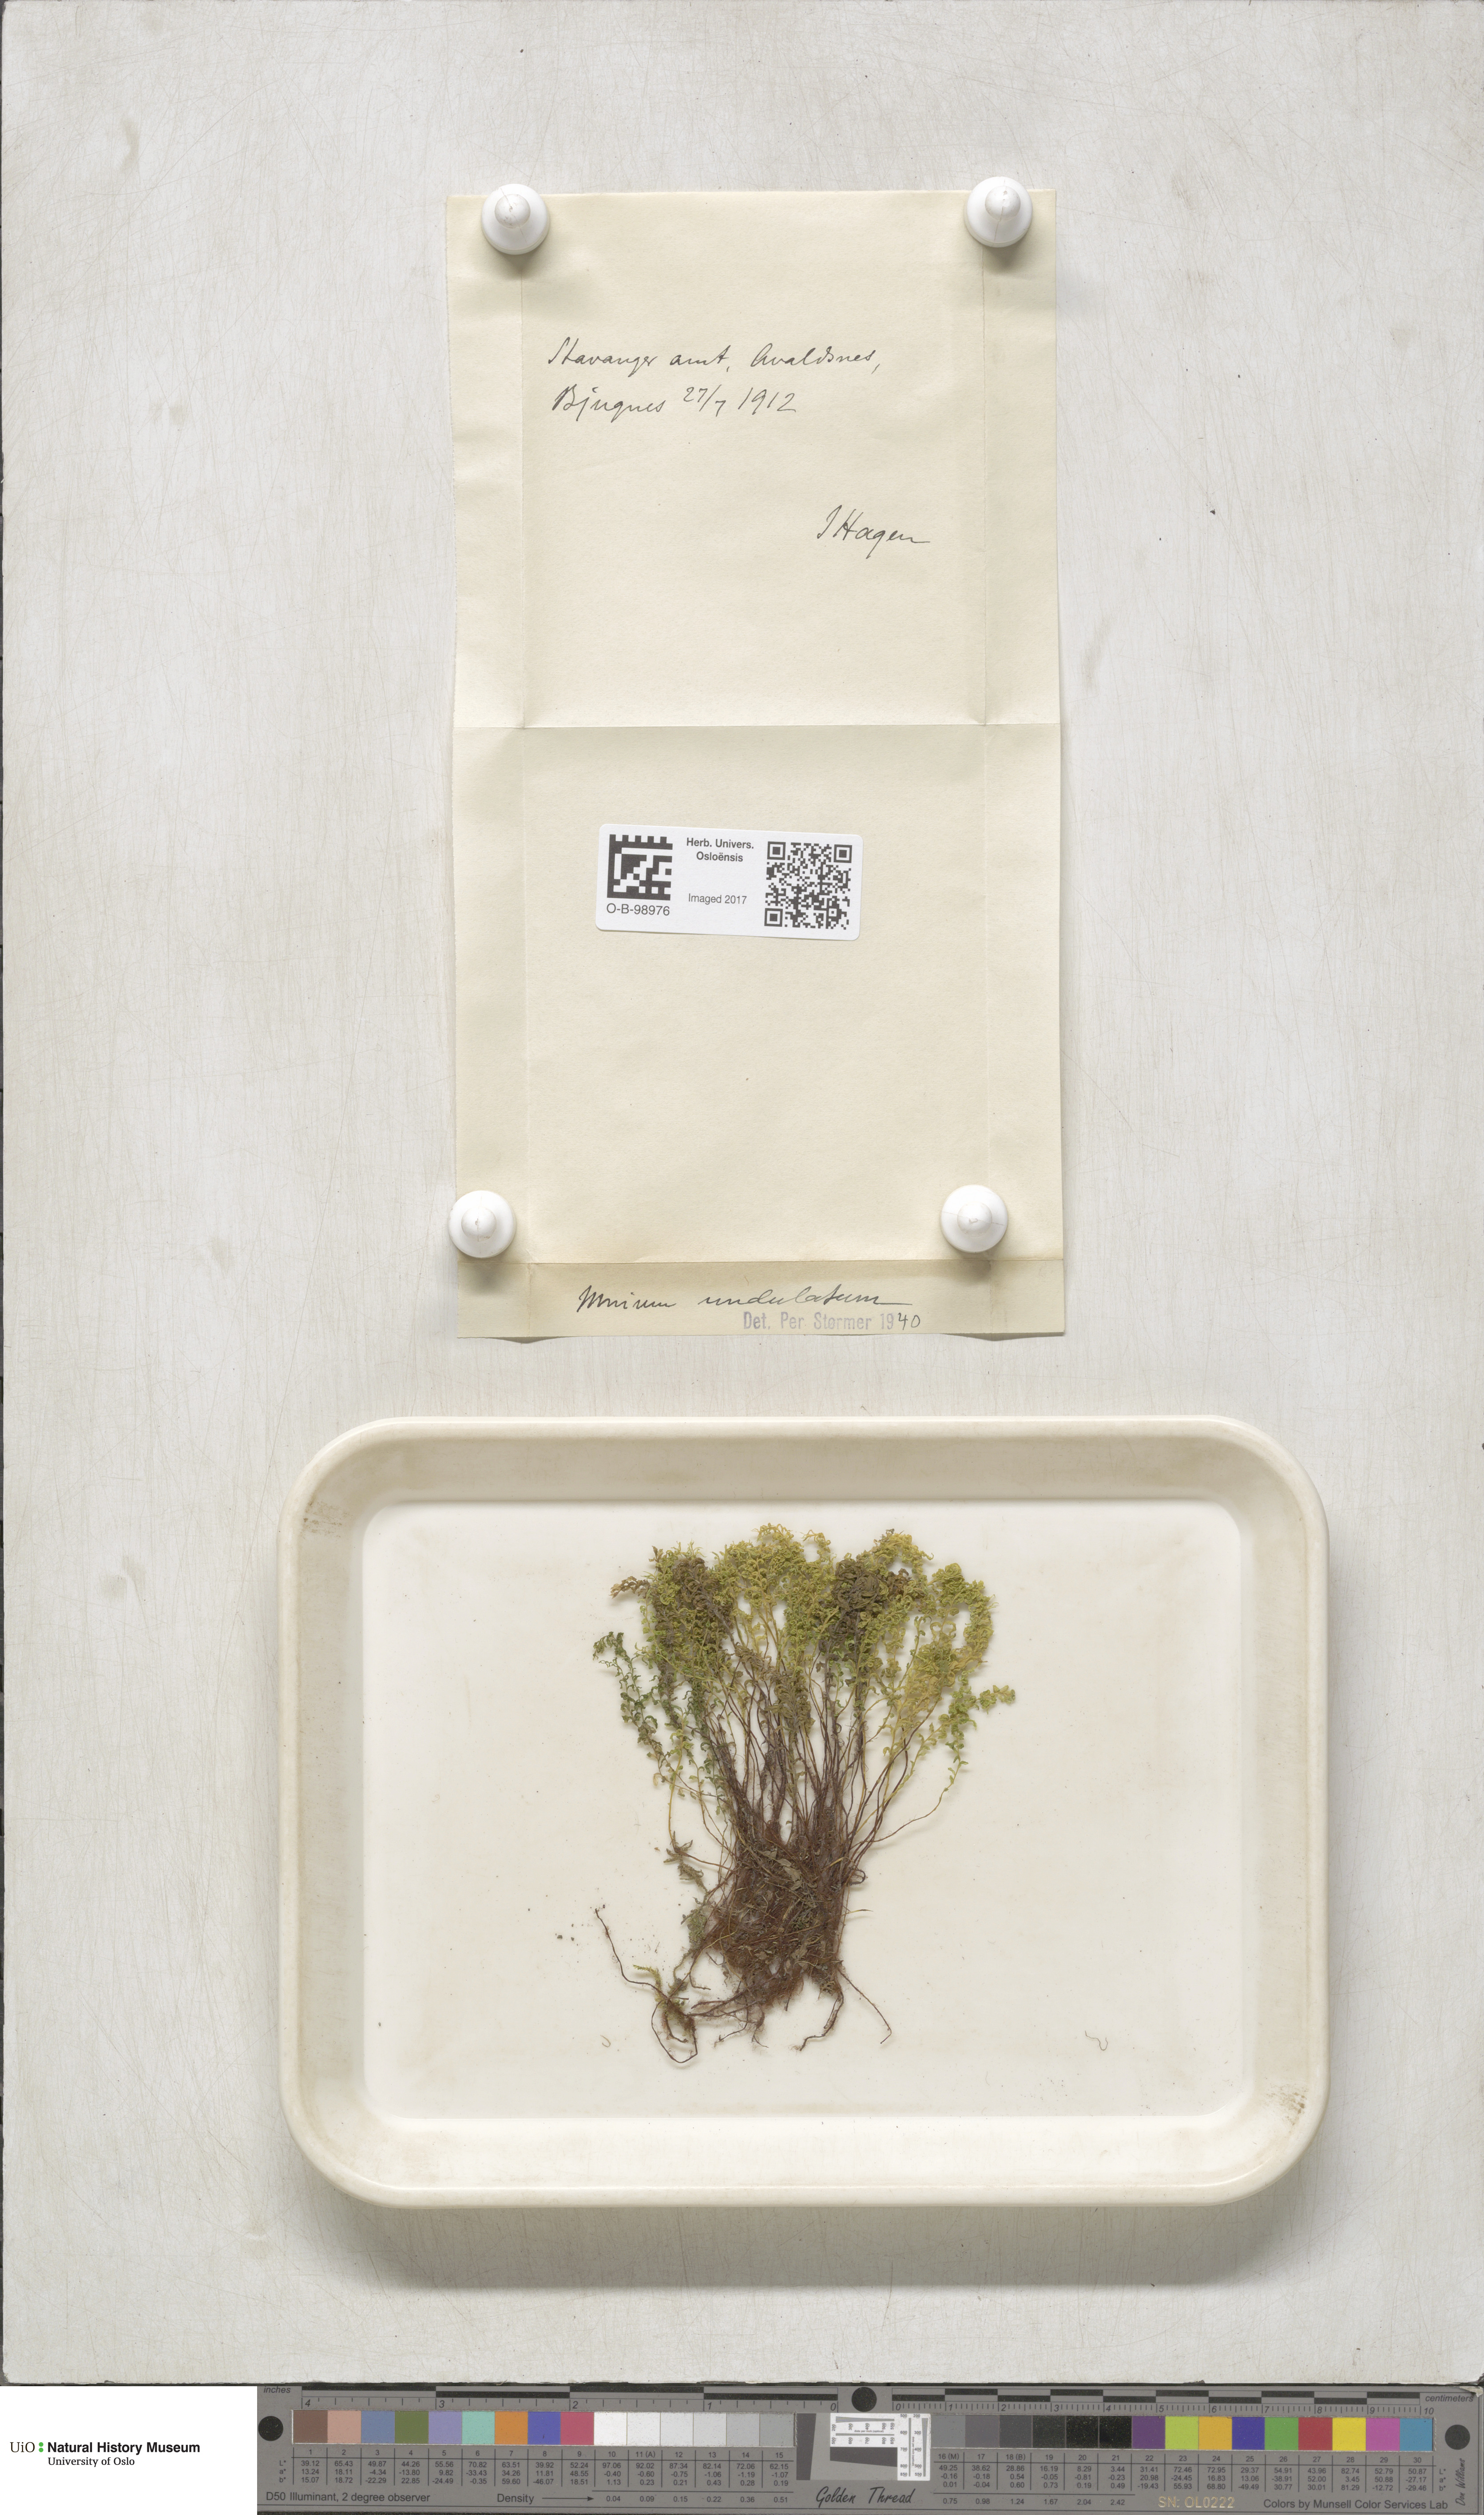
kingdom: Plantae
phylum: Bryophyta
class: Bryopsida
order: Bryales
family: Mniaceae
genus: Plagiomnium
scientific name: Plagiomnium undulatum
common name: Hart's-tongue thyme-moss
